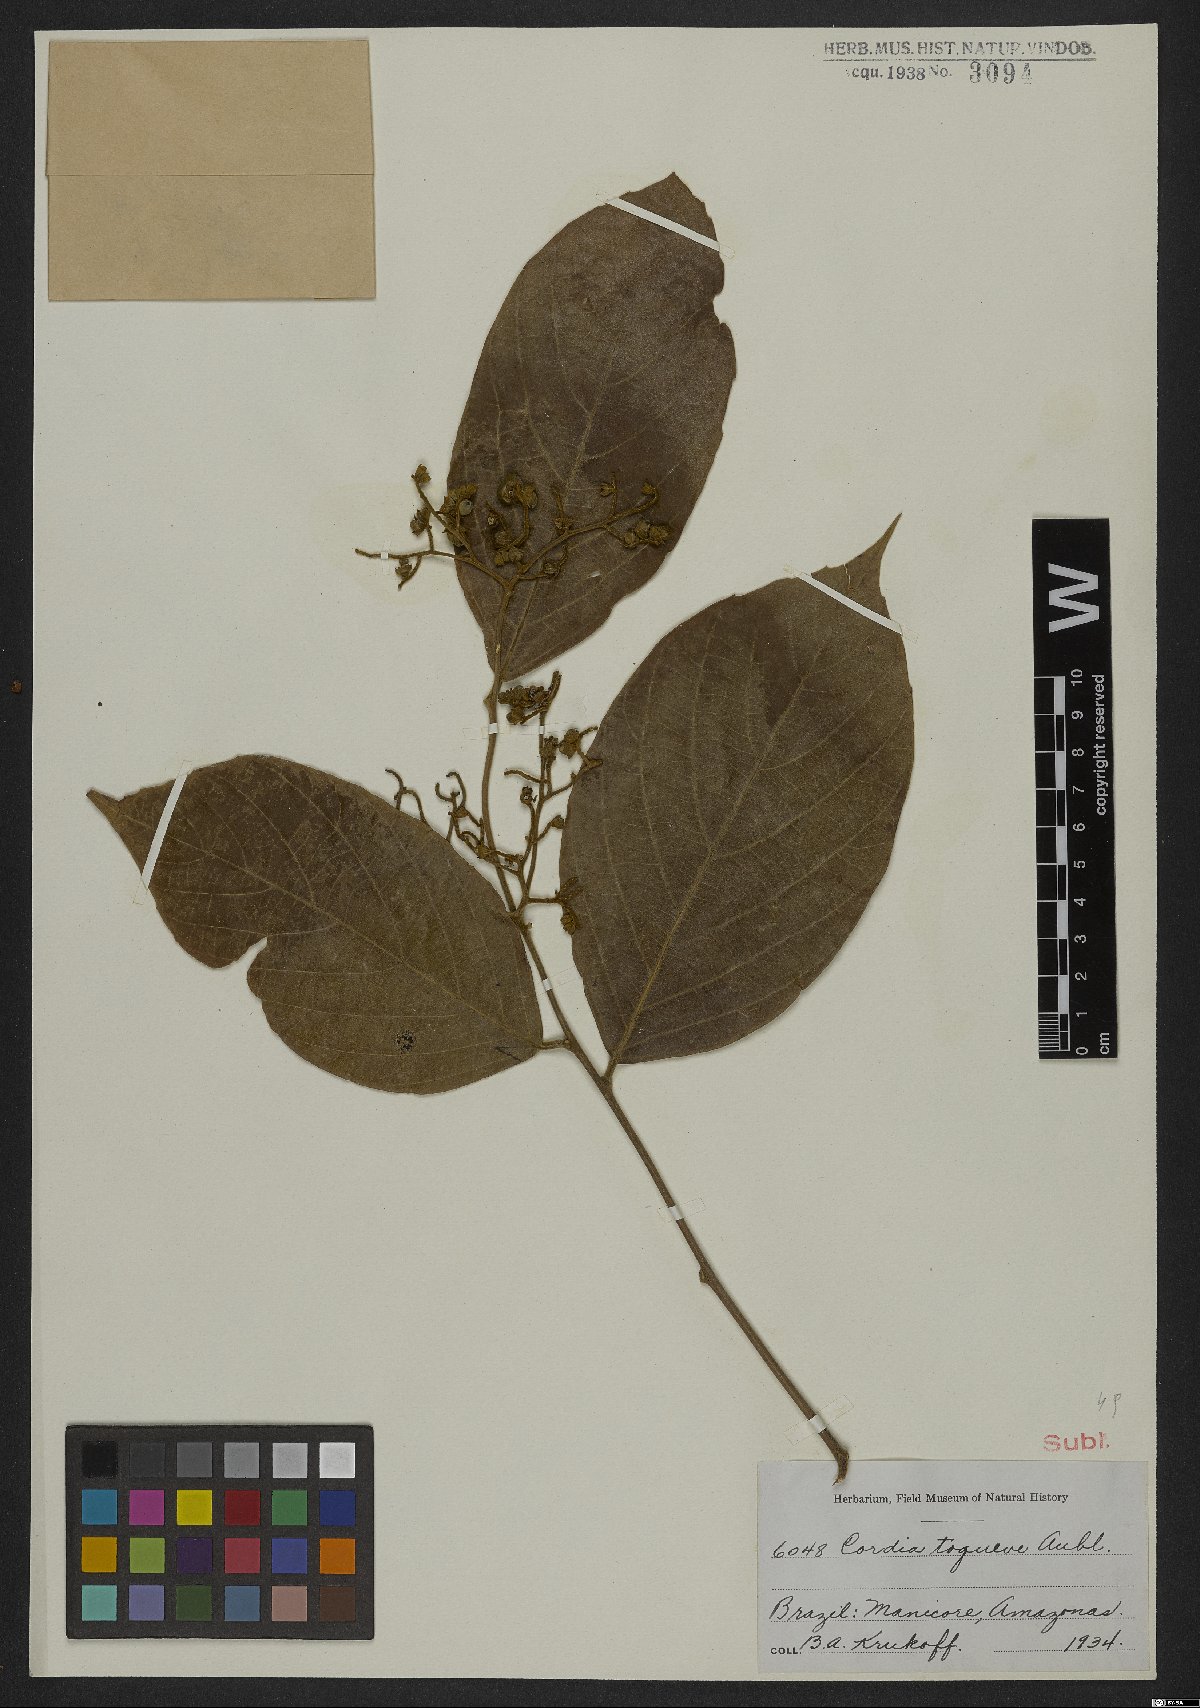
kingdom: Plantae
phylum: Tracheophyta
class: Magnoliopsida
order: Boraginales
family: Cordiaceae
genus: Cordia
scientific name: Cordia toqueve
